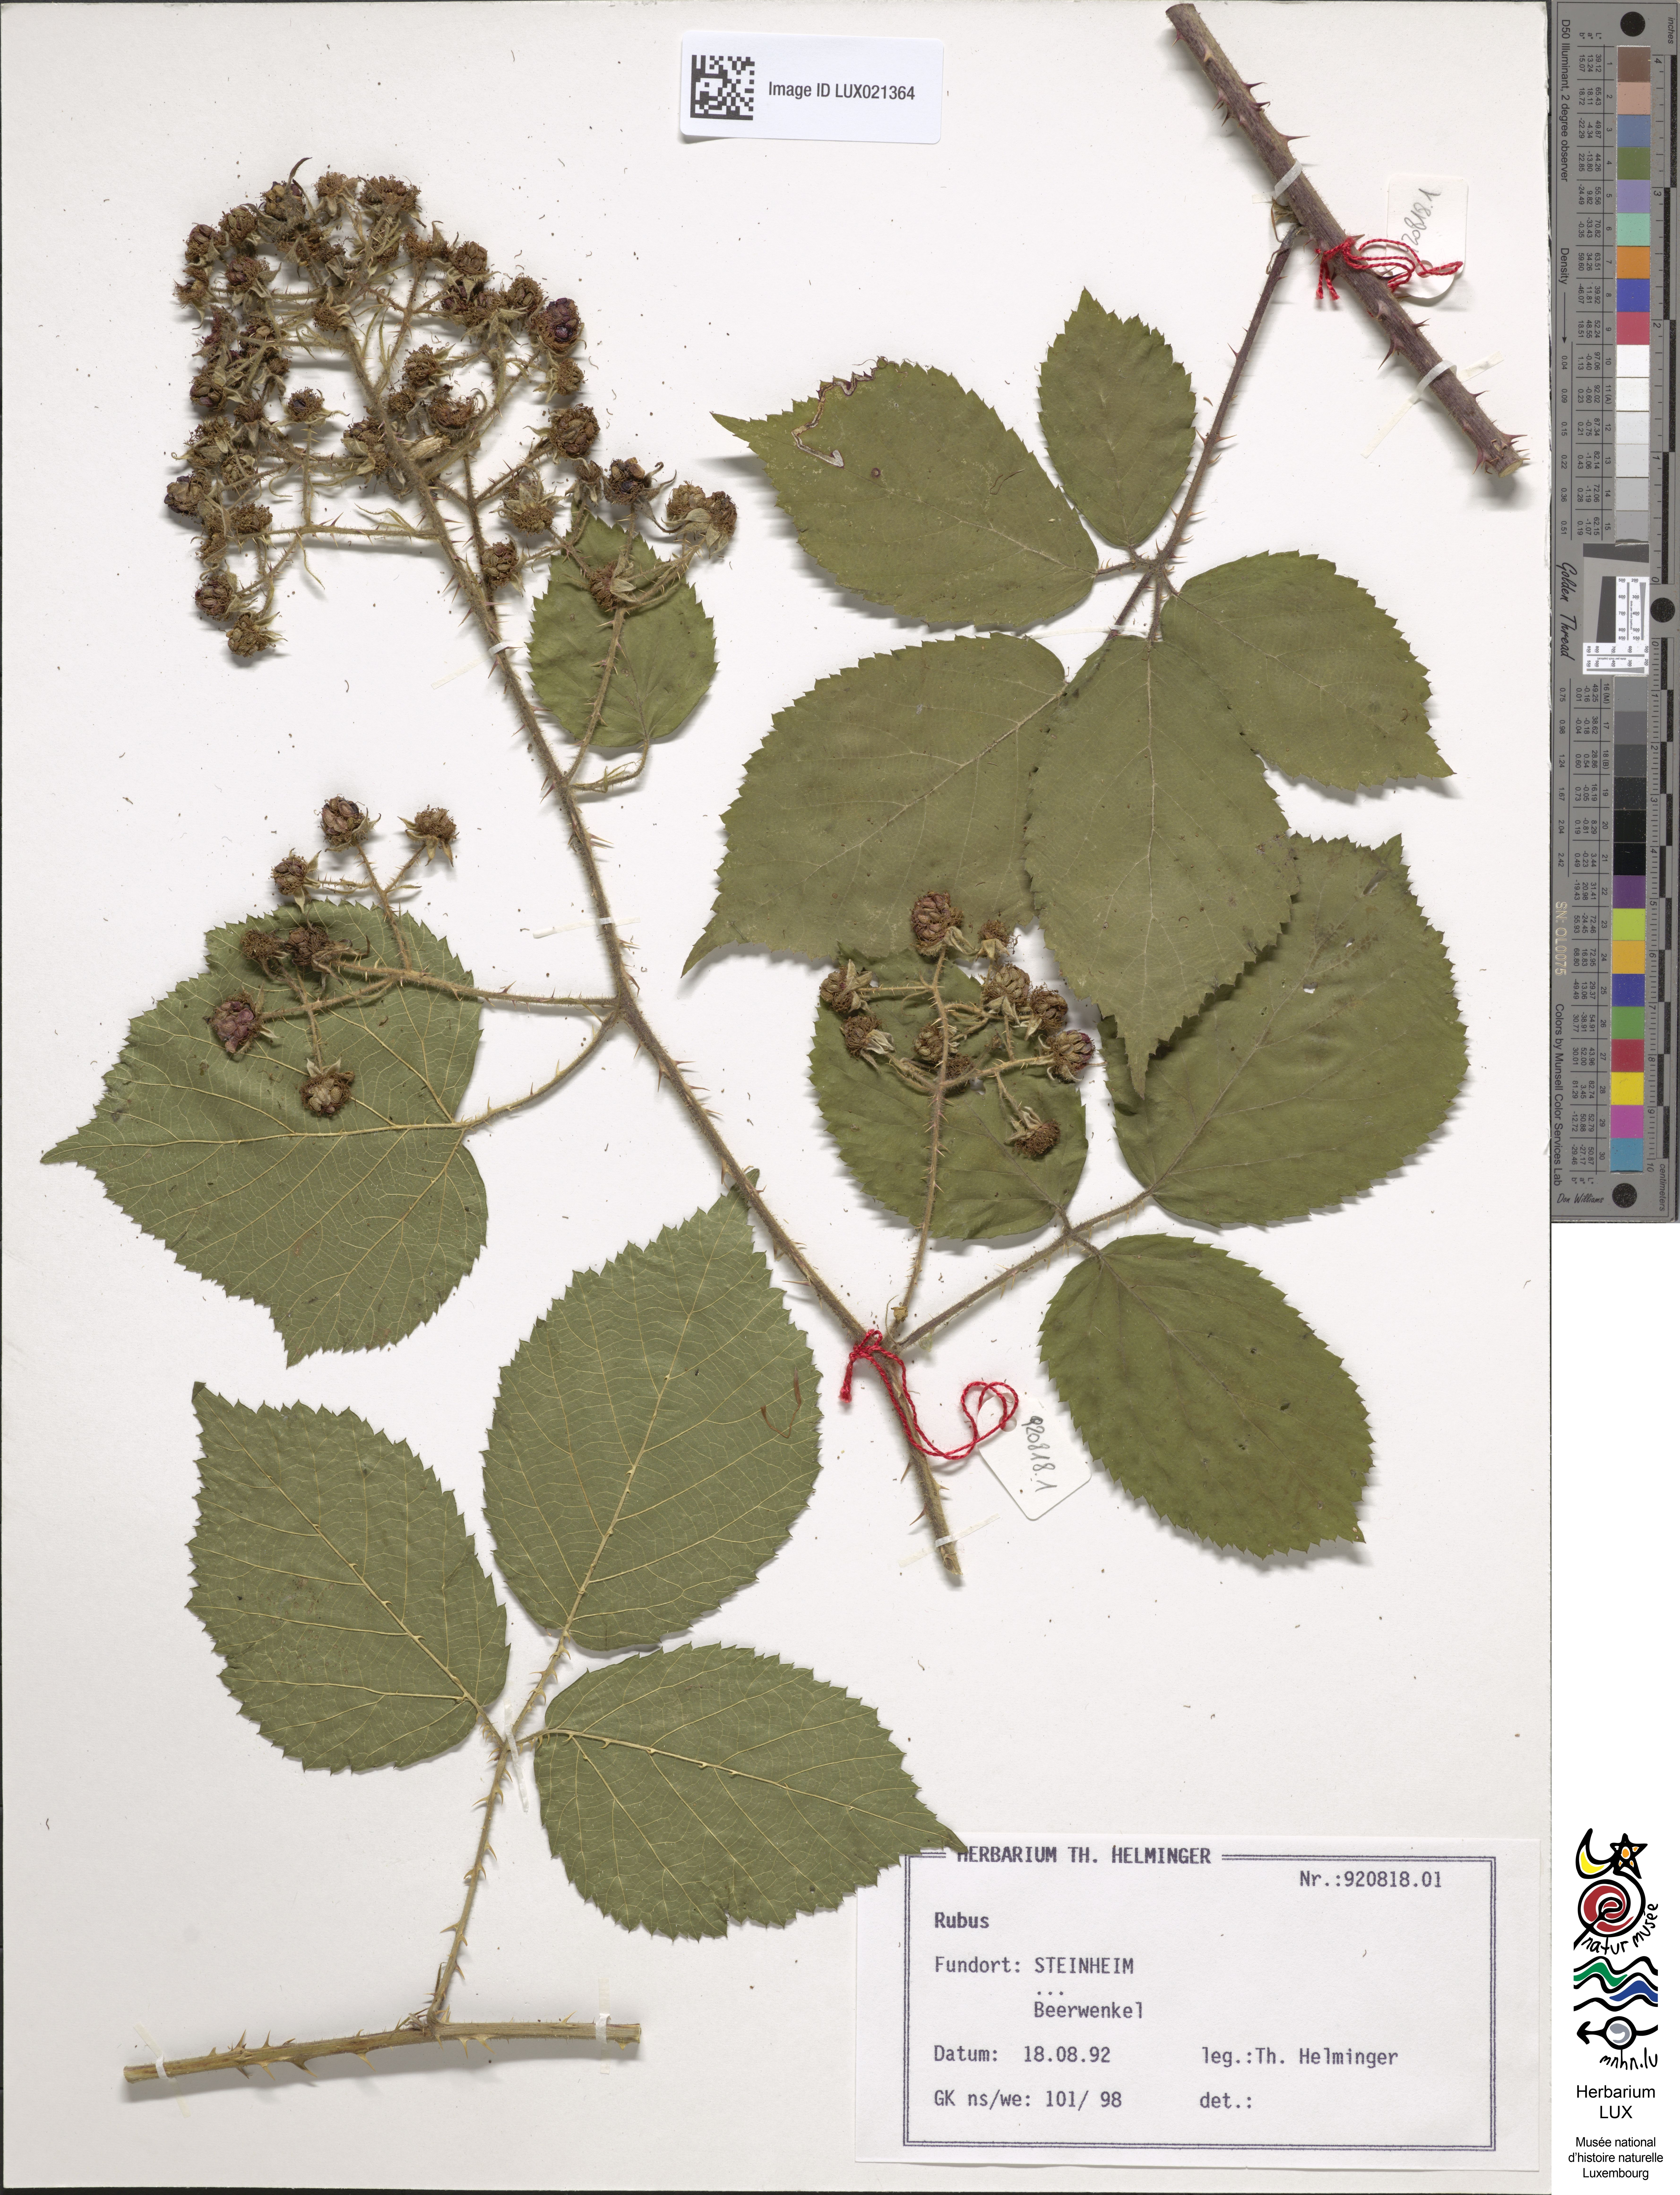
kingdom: Plantae
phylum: Tracheophyta
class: Magnoliopsida
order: Rosales
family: Rosaceae
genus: Rubus
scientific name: Rubus
